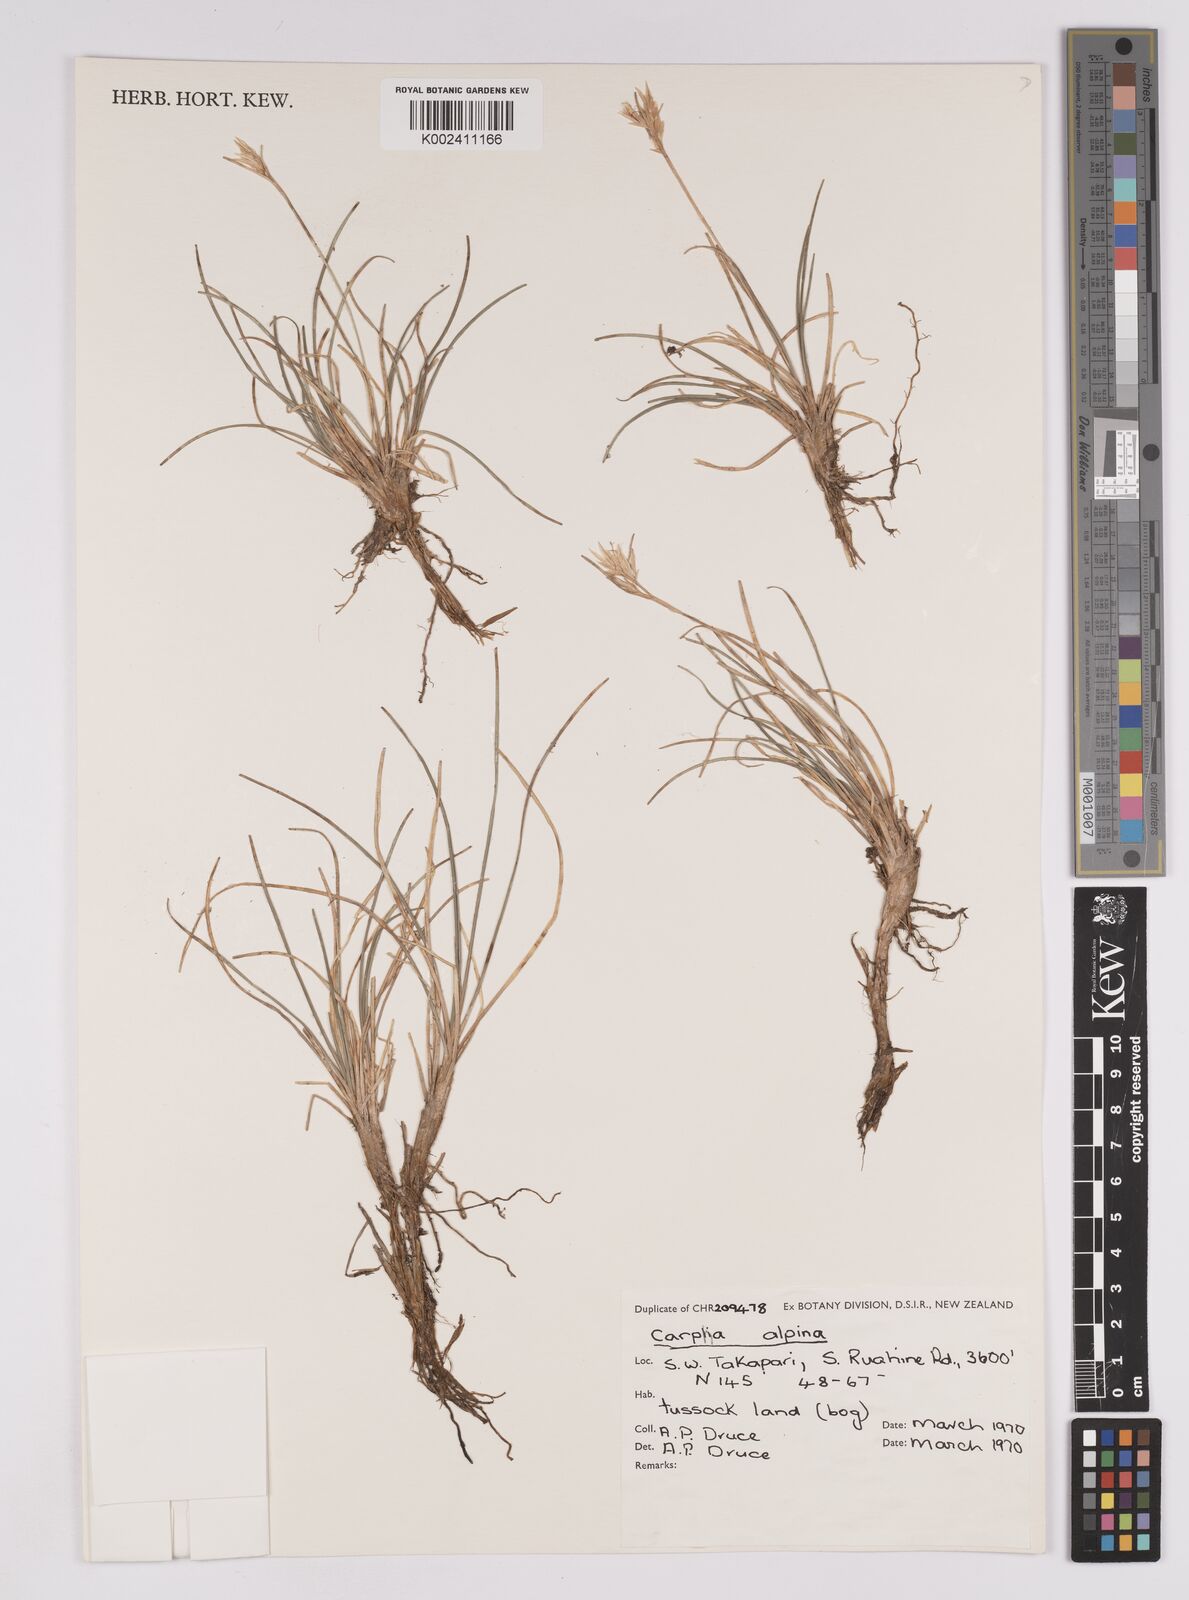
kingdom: Plantae
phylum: Tracheophyta
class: Liliopsida
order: Poales
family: Cyperaceae
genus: Carpha
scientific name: Carpha alpina
